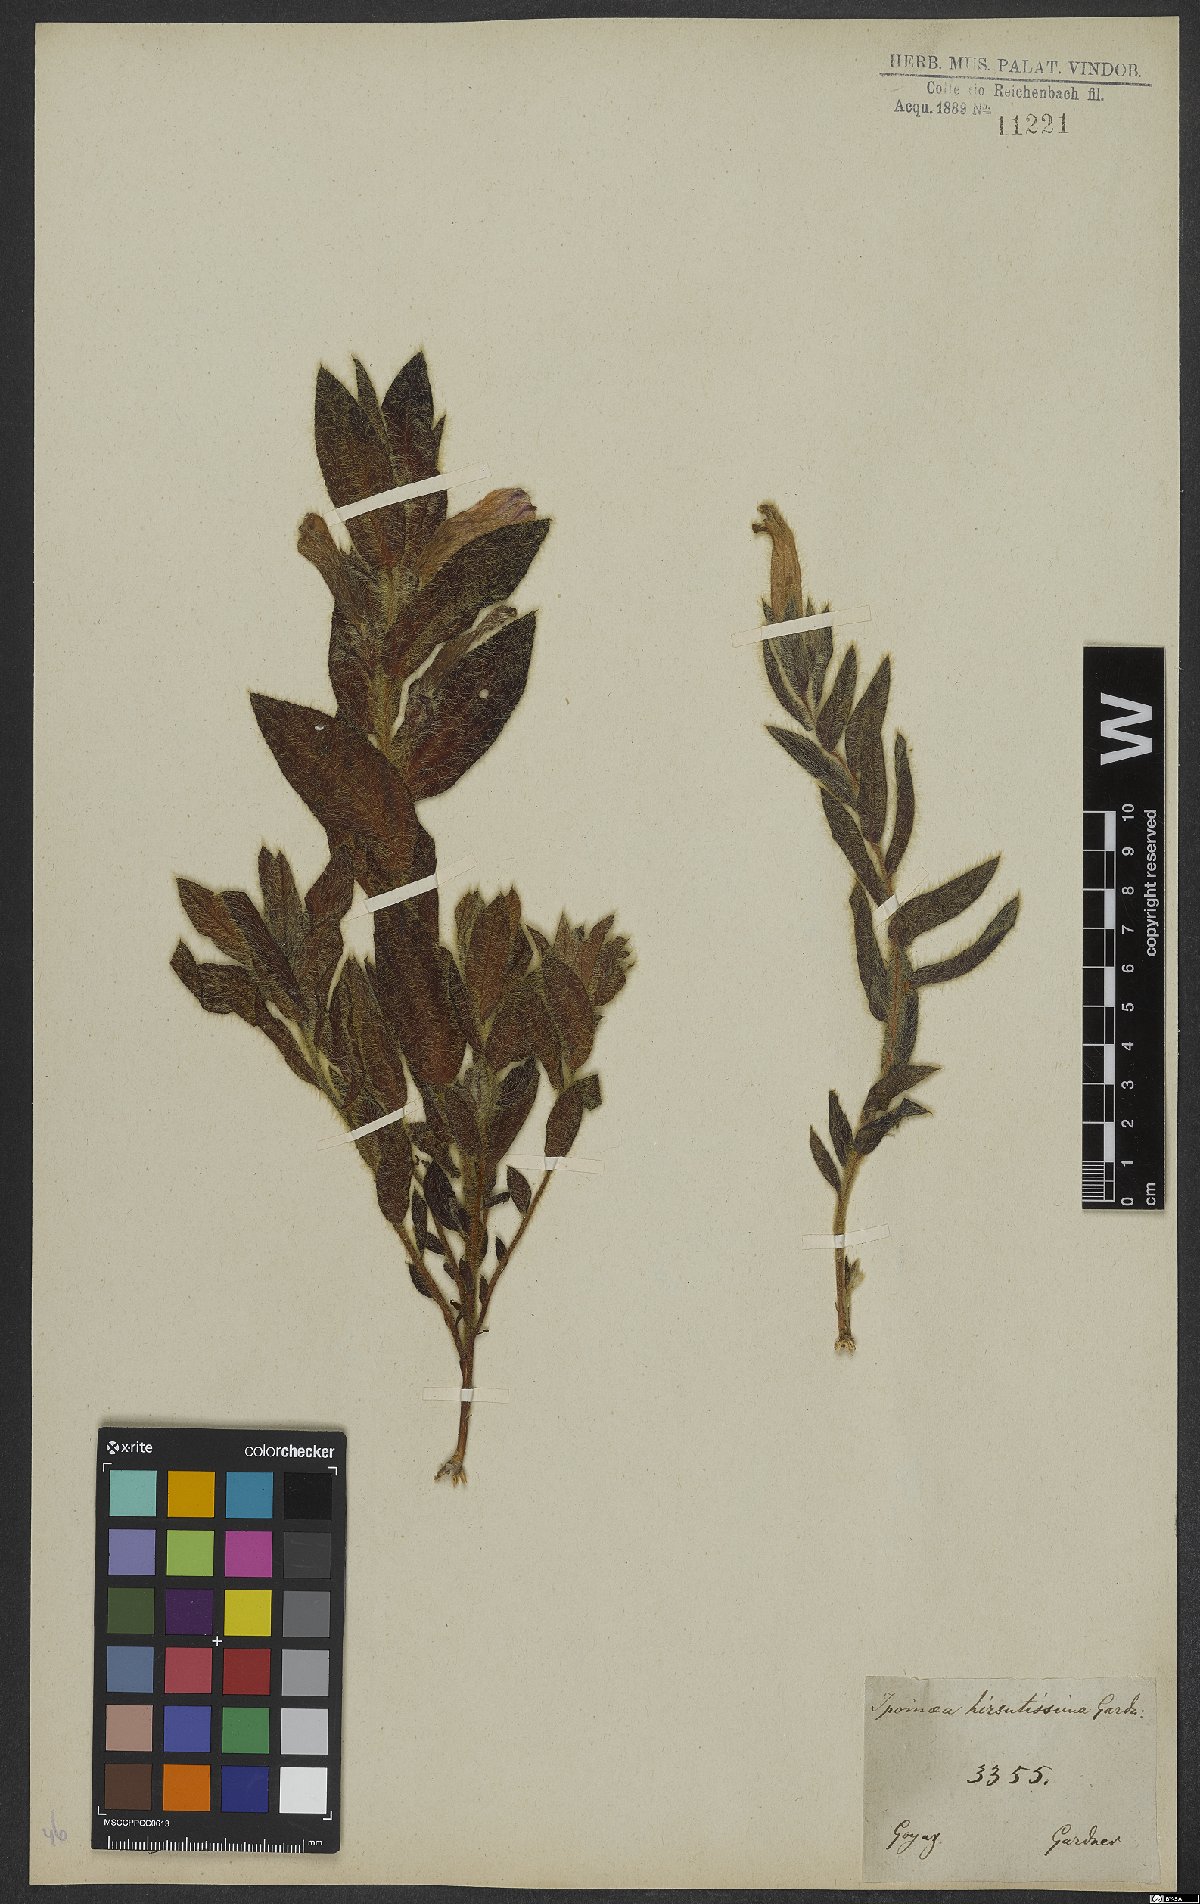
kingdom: Plantae
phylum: Tracheophyta
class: Magnoliopsida
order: Solanales
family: Convolvulaceae
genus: Ipomoea
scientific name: Ipomoea hirsutissima
